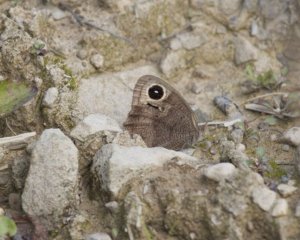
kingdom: Animalia
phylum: Arthropoda
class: Insecta
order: Lepidoptera
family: Nymphalidae
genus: Cercyonis
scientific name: Cercyonis pegala
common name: Common Wood-Nymph
